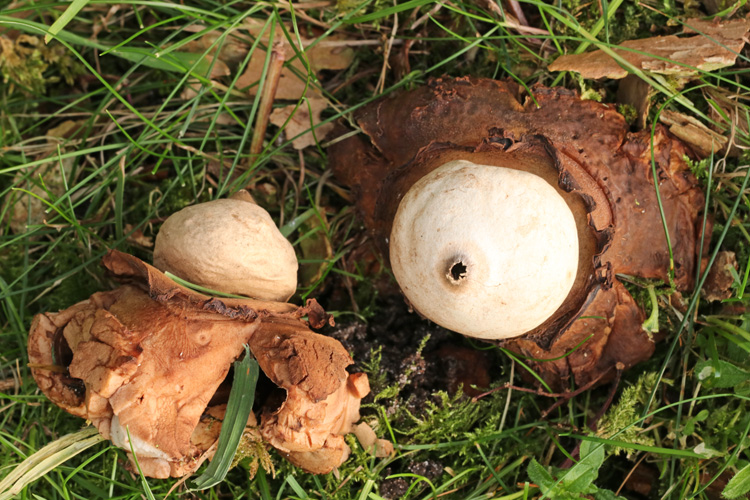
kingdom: Fungi
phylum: Basidiomycota
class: Agaricomycetes
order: Geastrales
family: Geastraceae
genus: Geastrum
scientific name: Geastrum michelianum
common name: kødet stjernebold
